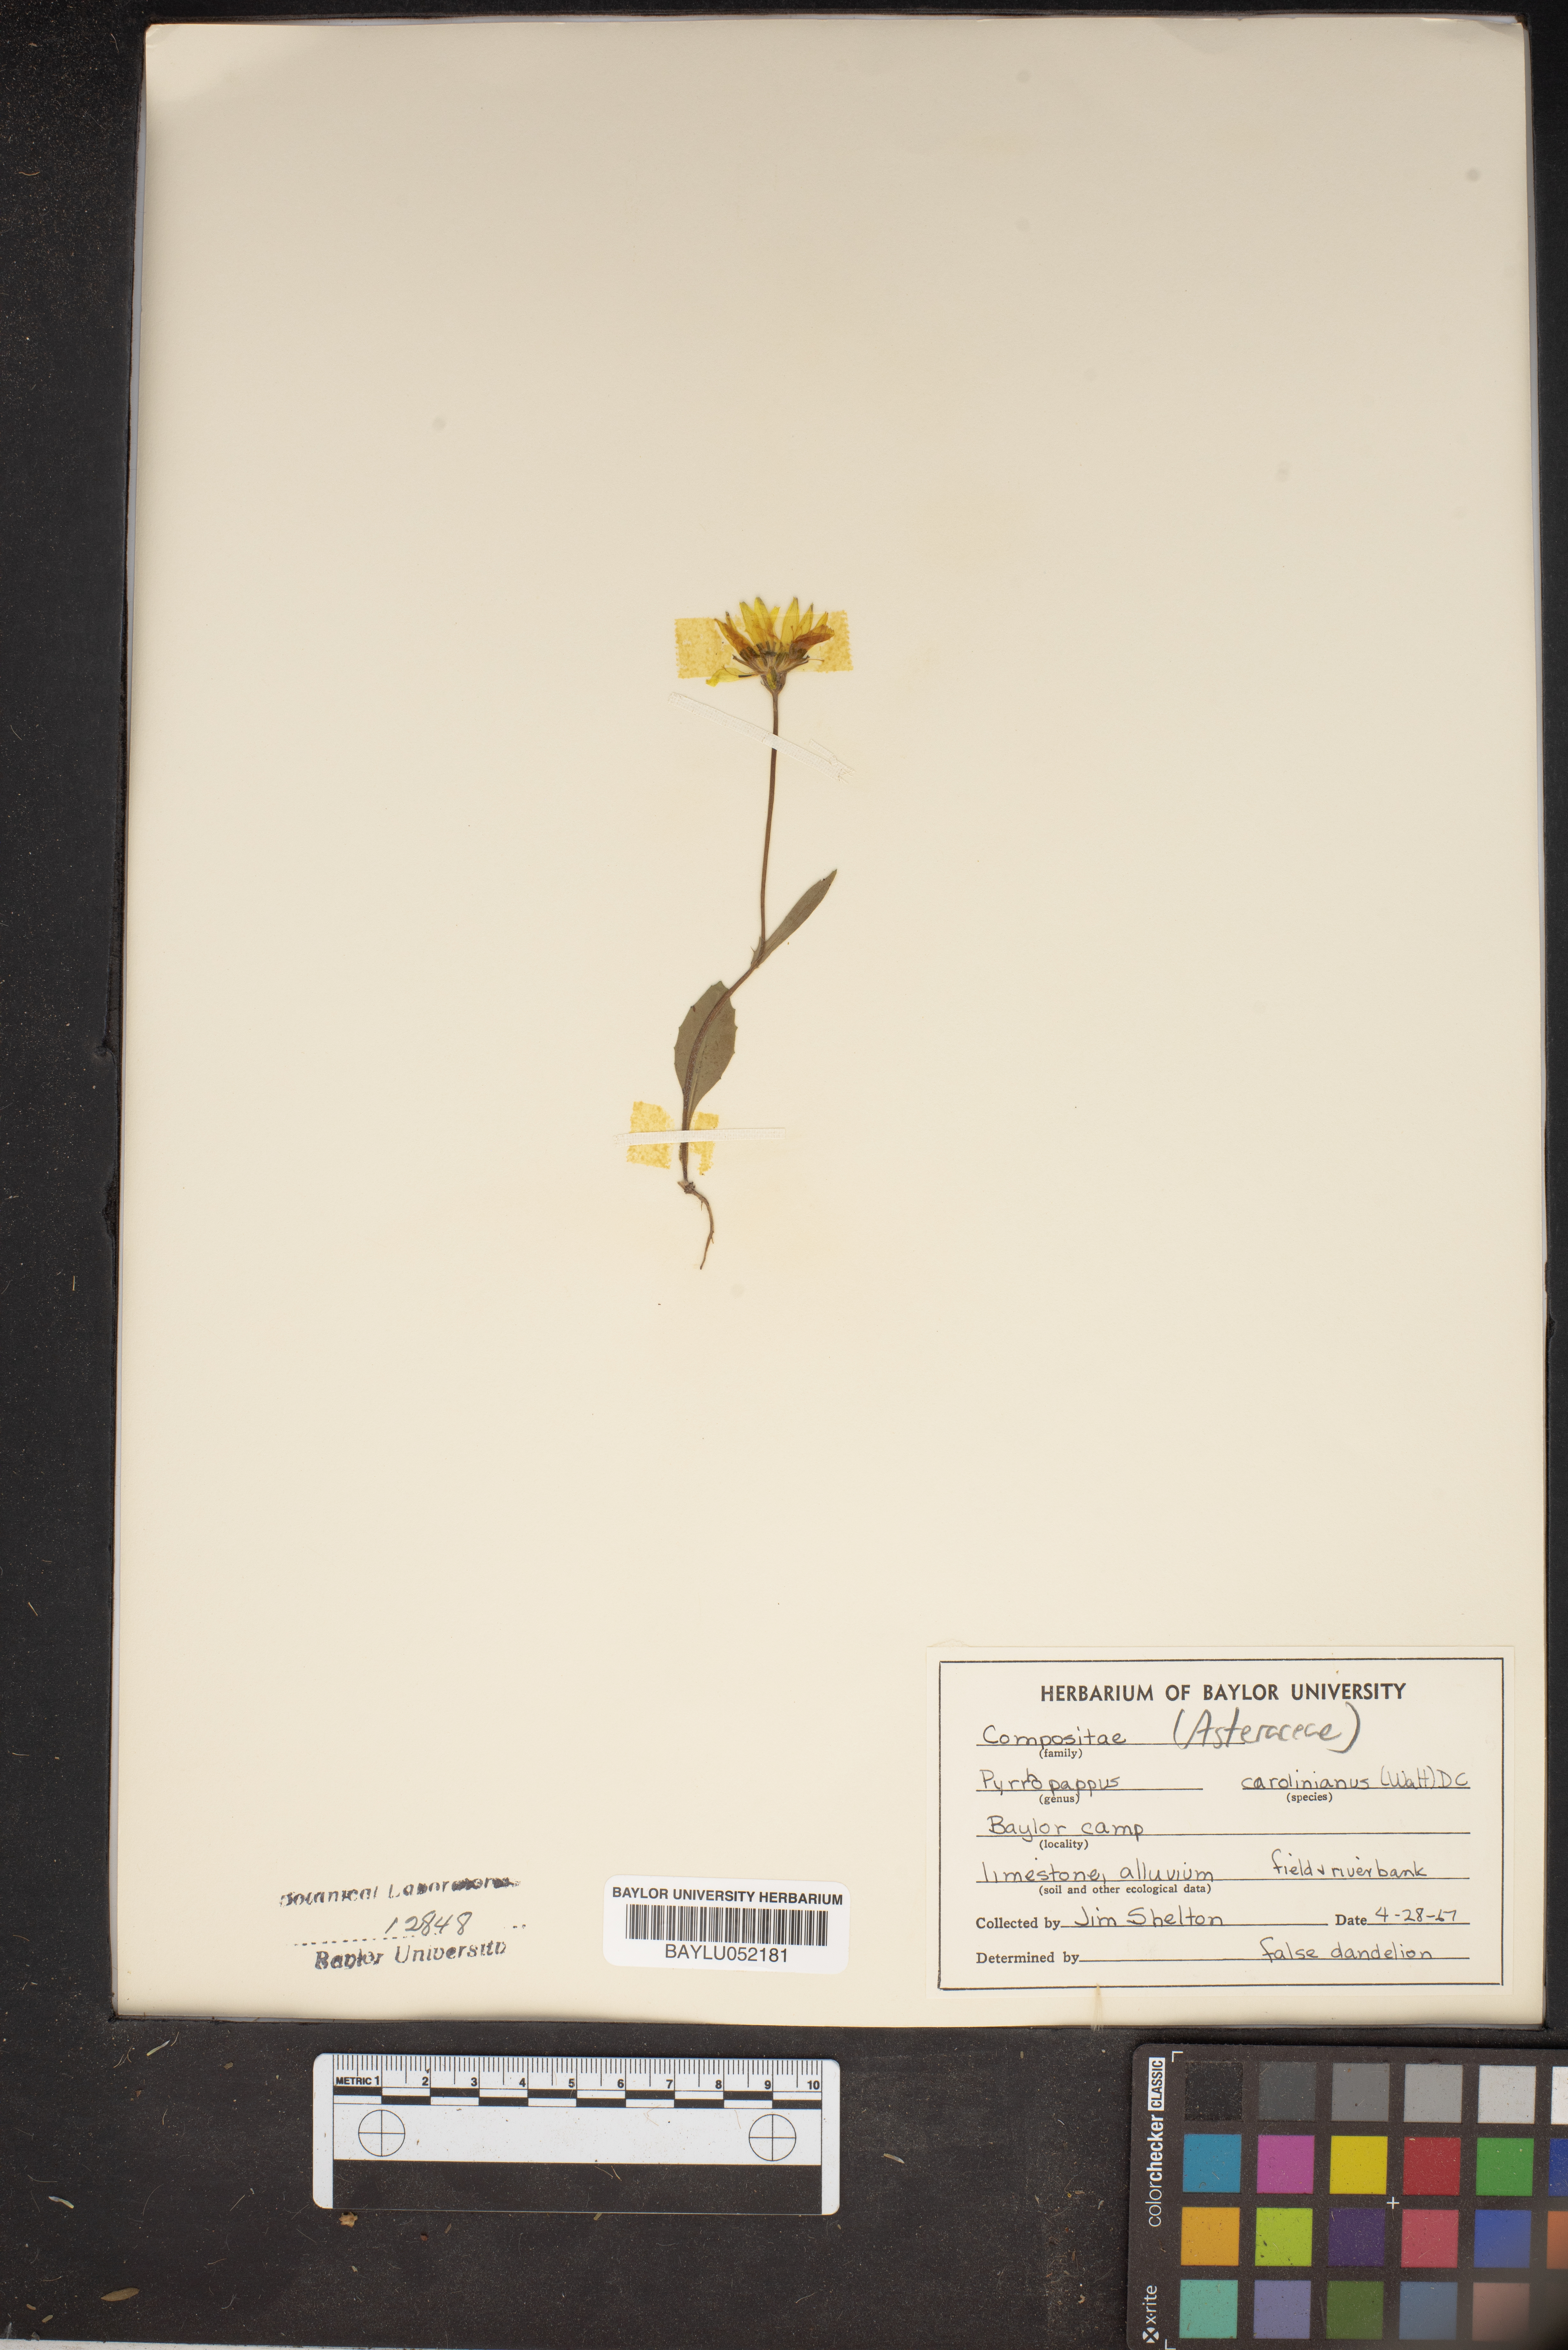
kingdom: Plantae
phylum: Tracheophyta
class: Magnoliopsida
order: Asterales
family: Asteraceae
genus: Pyrrhopappus
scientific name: Pyrrhopappus carolinianus
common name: Carolina desert-chicory
